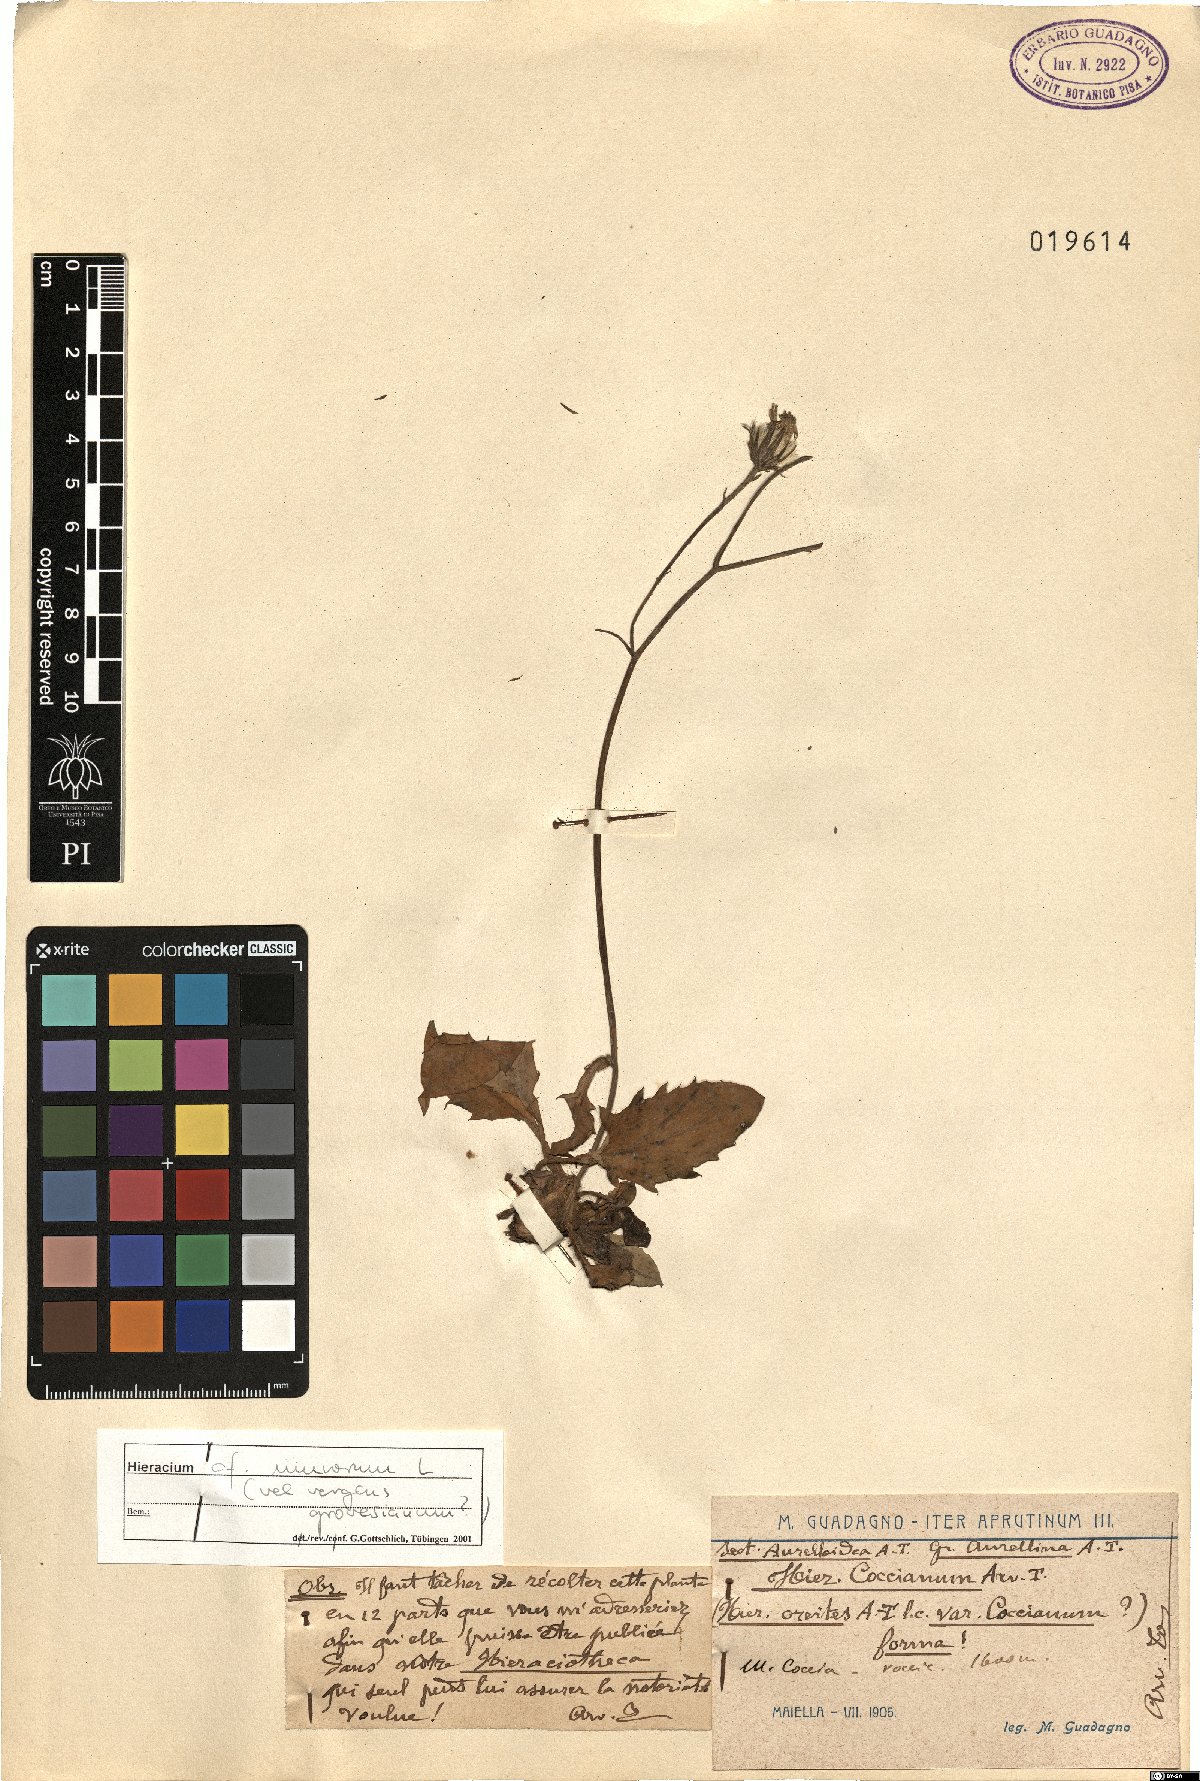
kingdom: Plantae
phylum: Tracheophyta
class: Magnoliopsida
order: Asterales
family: Asteraceae
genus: Hieracium
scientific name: Hieracium murorum
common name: Wall hawkweed
